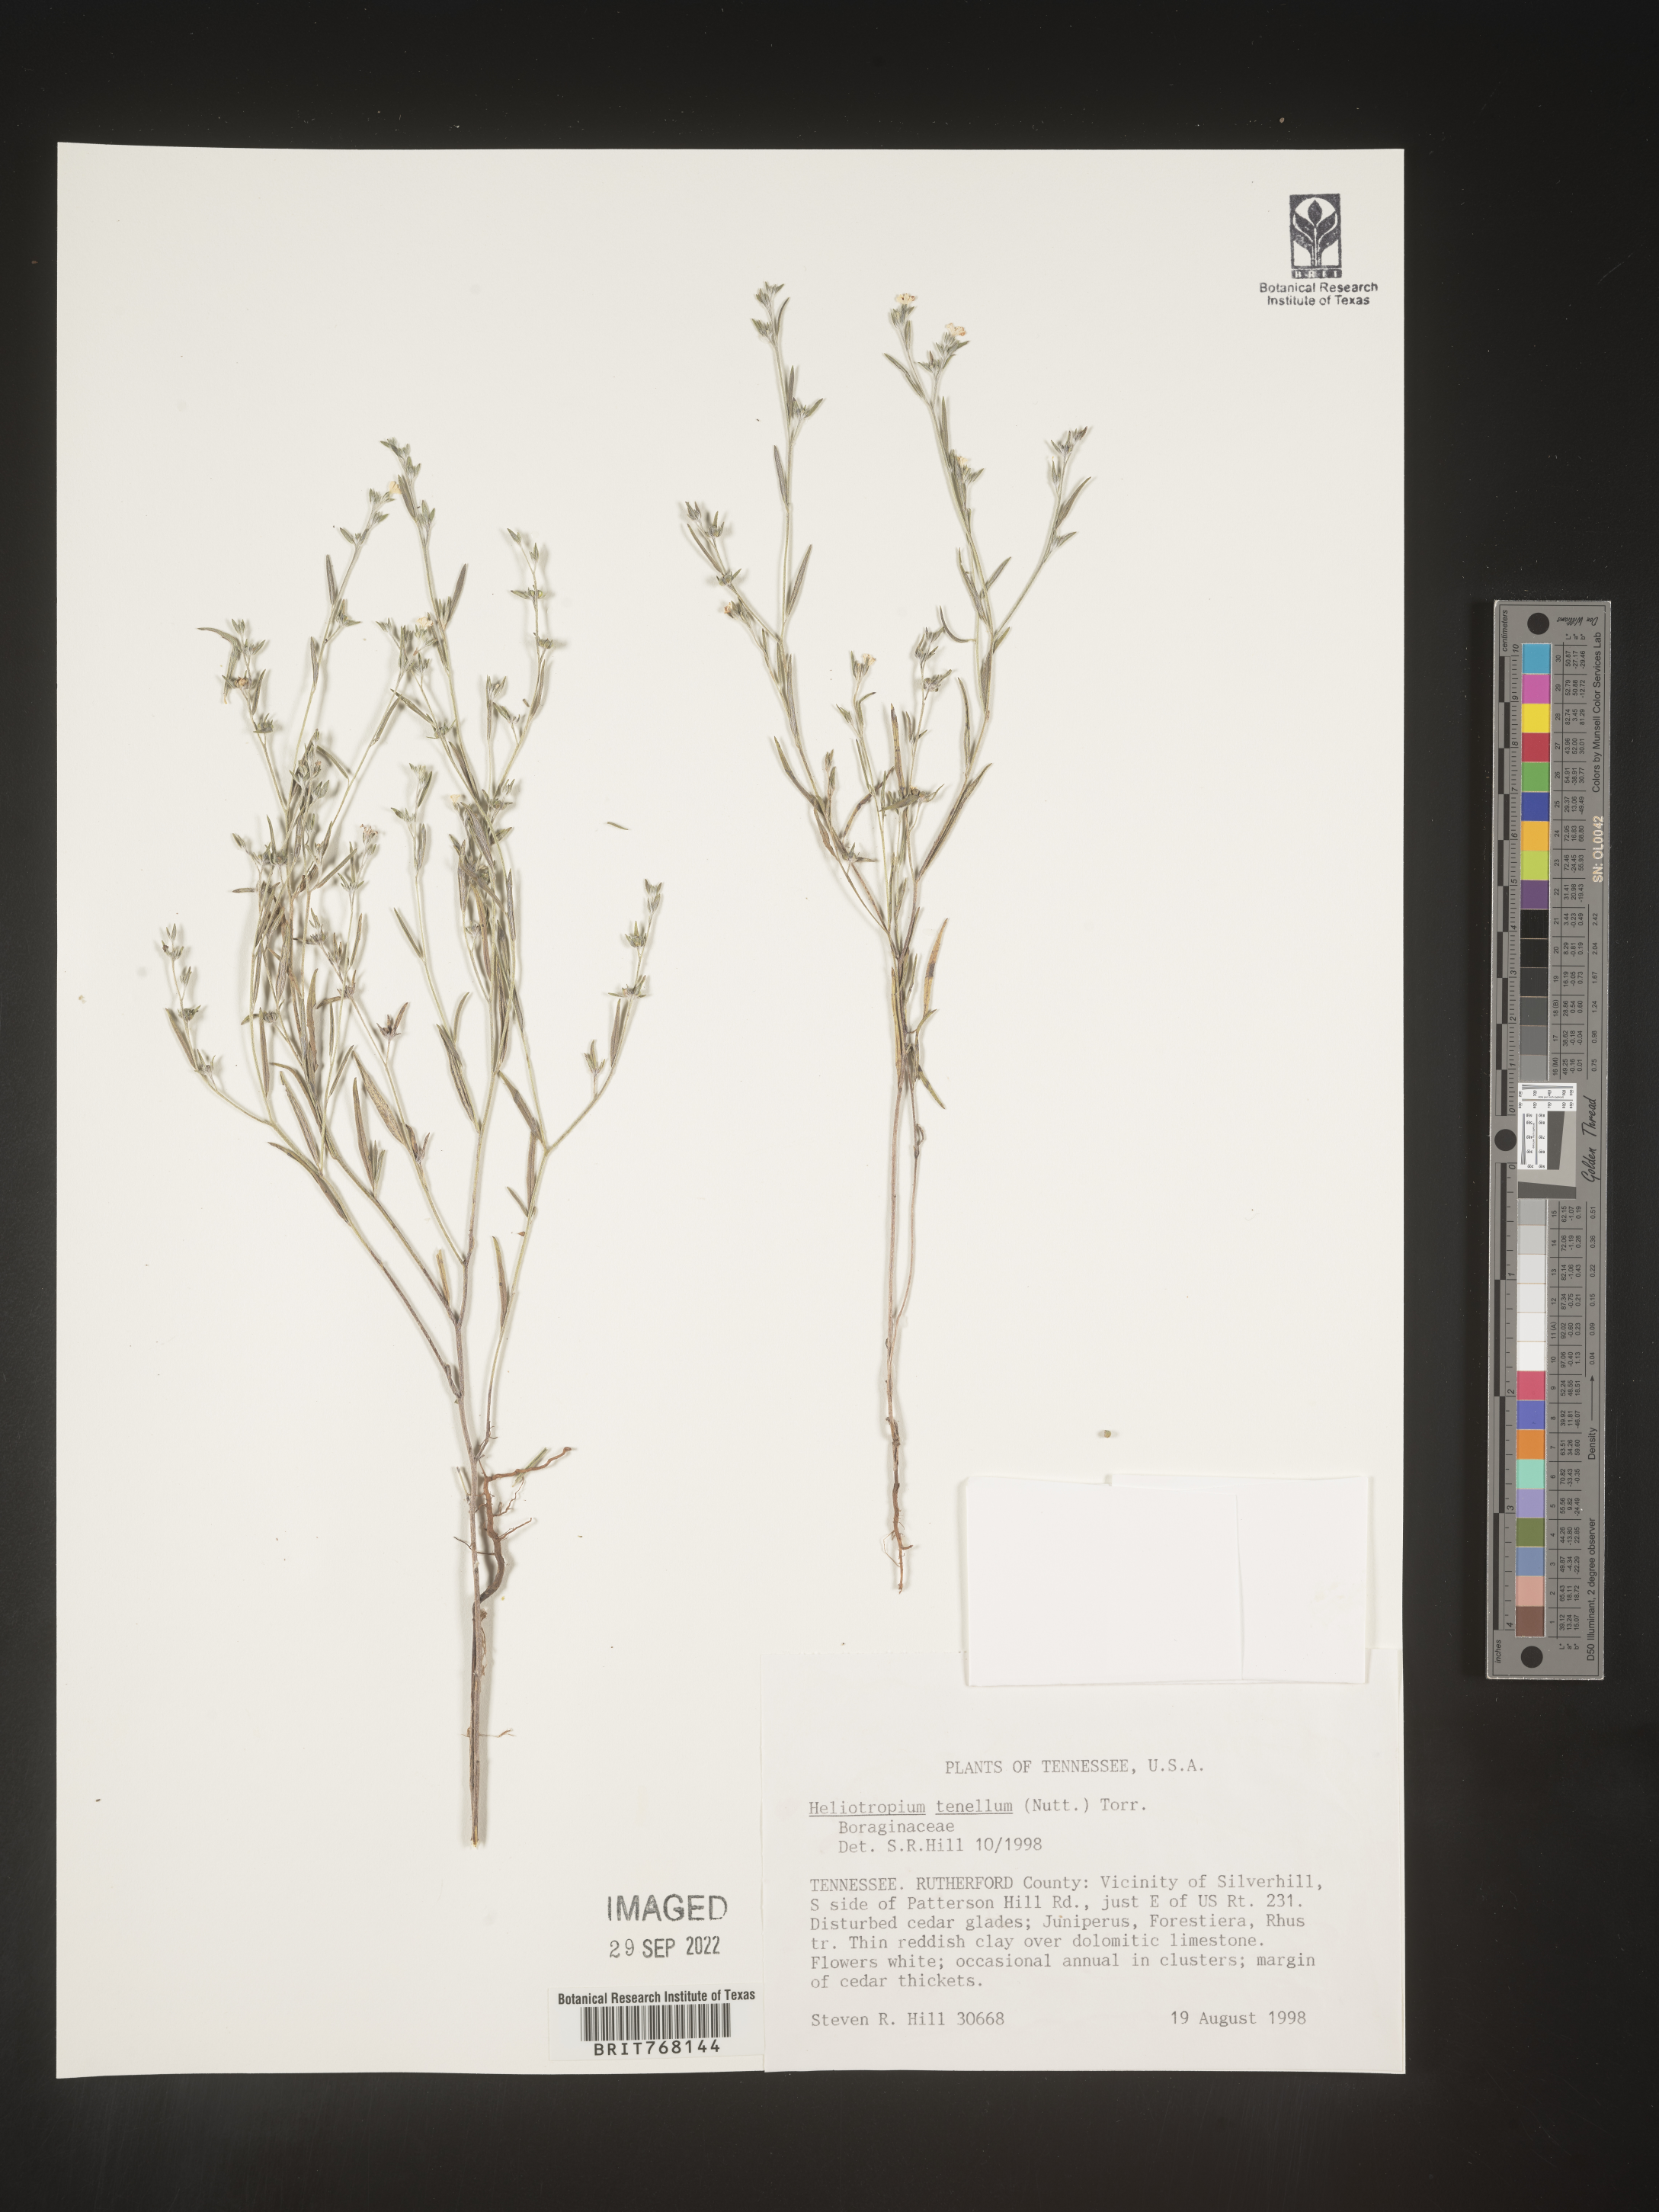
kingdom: Plantae
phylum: Tracheophyta
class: Magnoliopsida
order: Boraginales
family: Heliotropiaceae
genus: Euploca
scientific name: Euploca tenella
